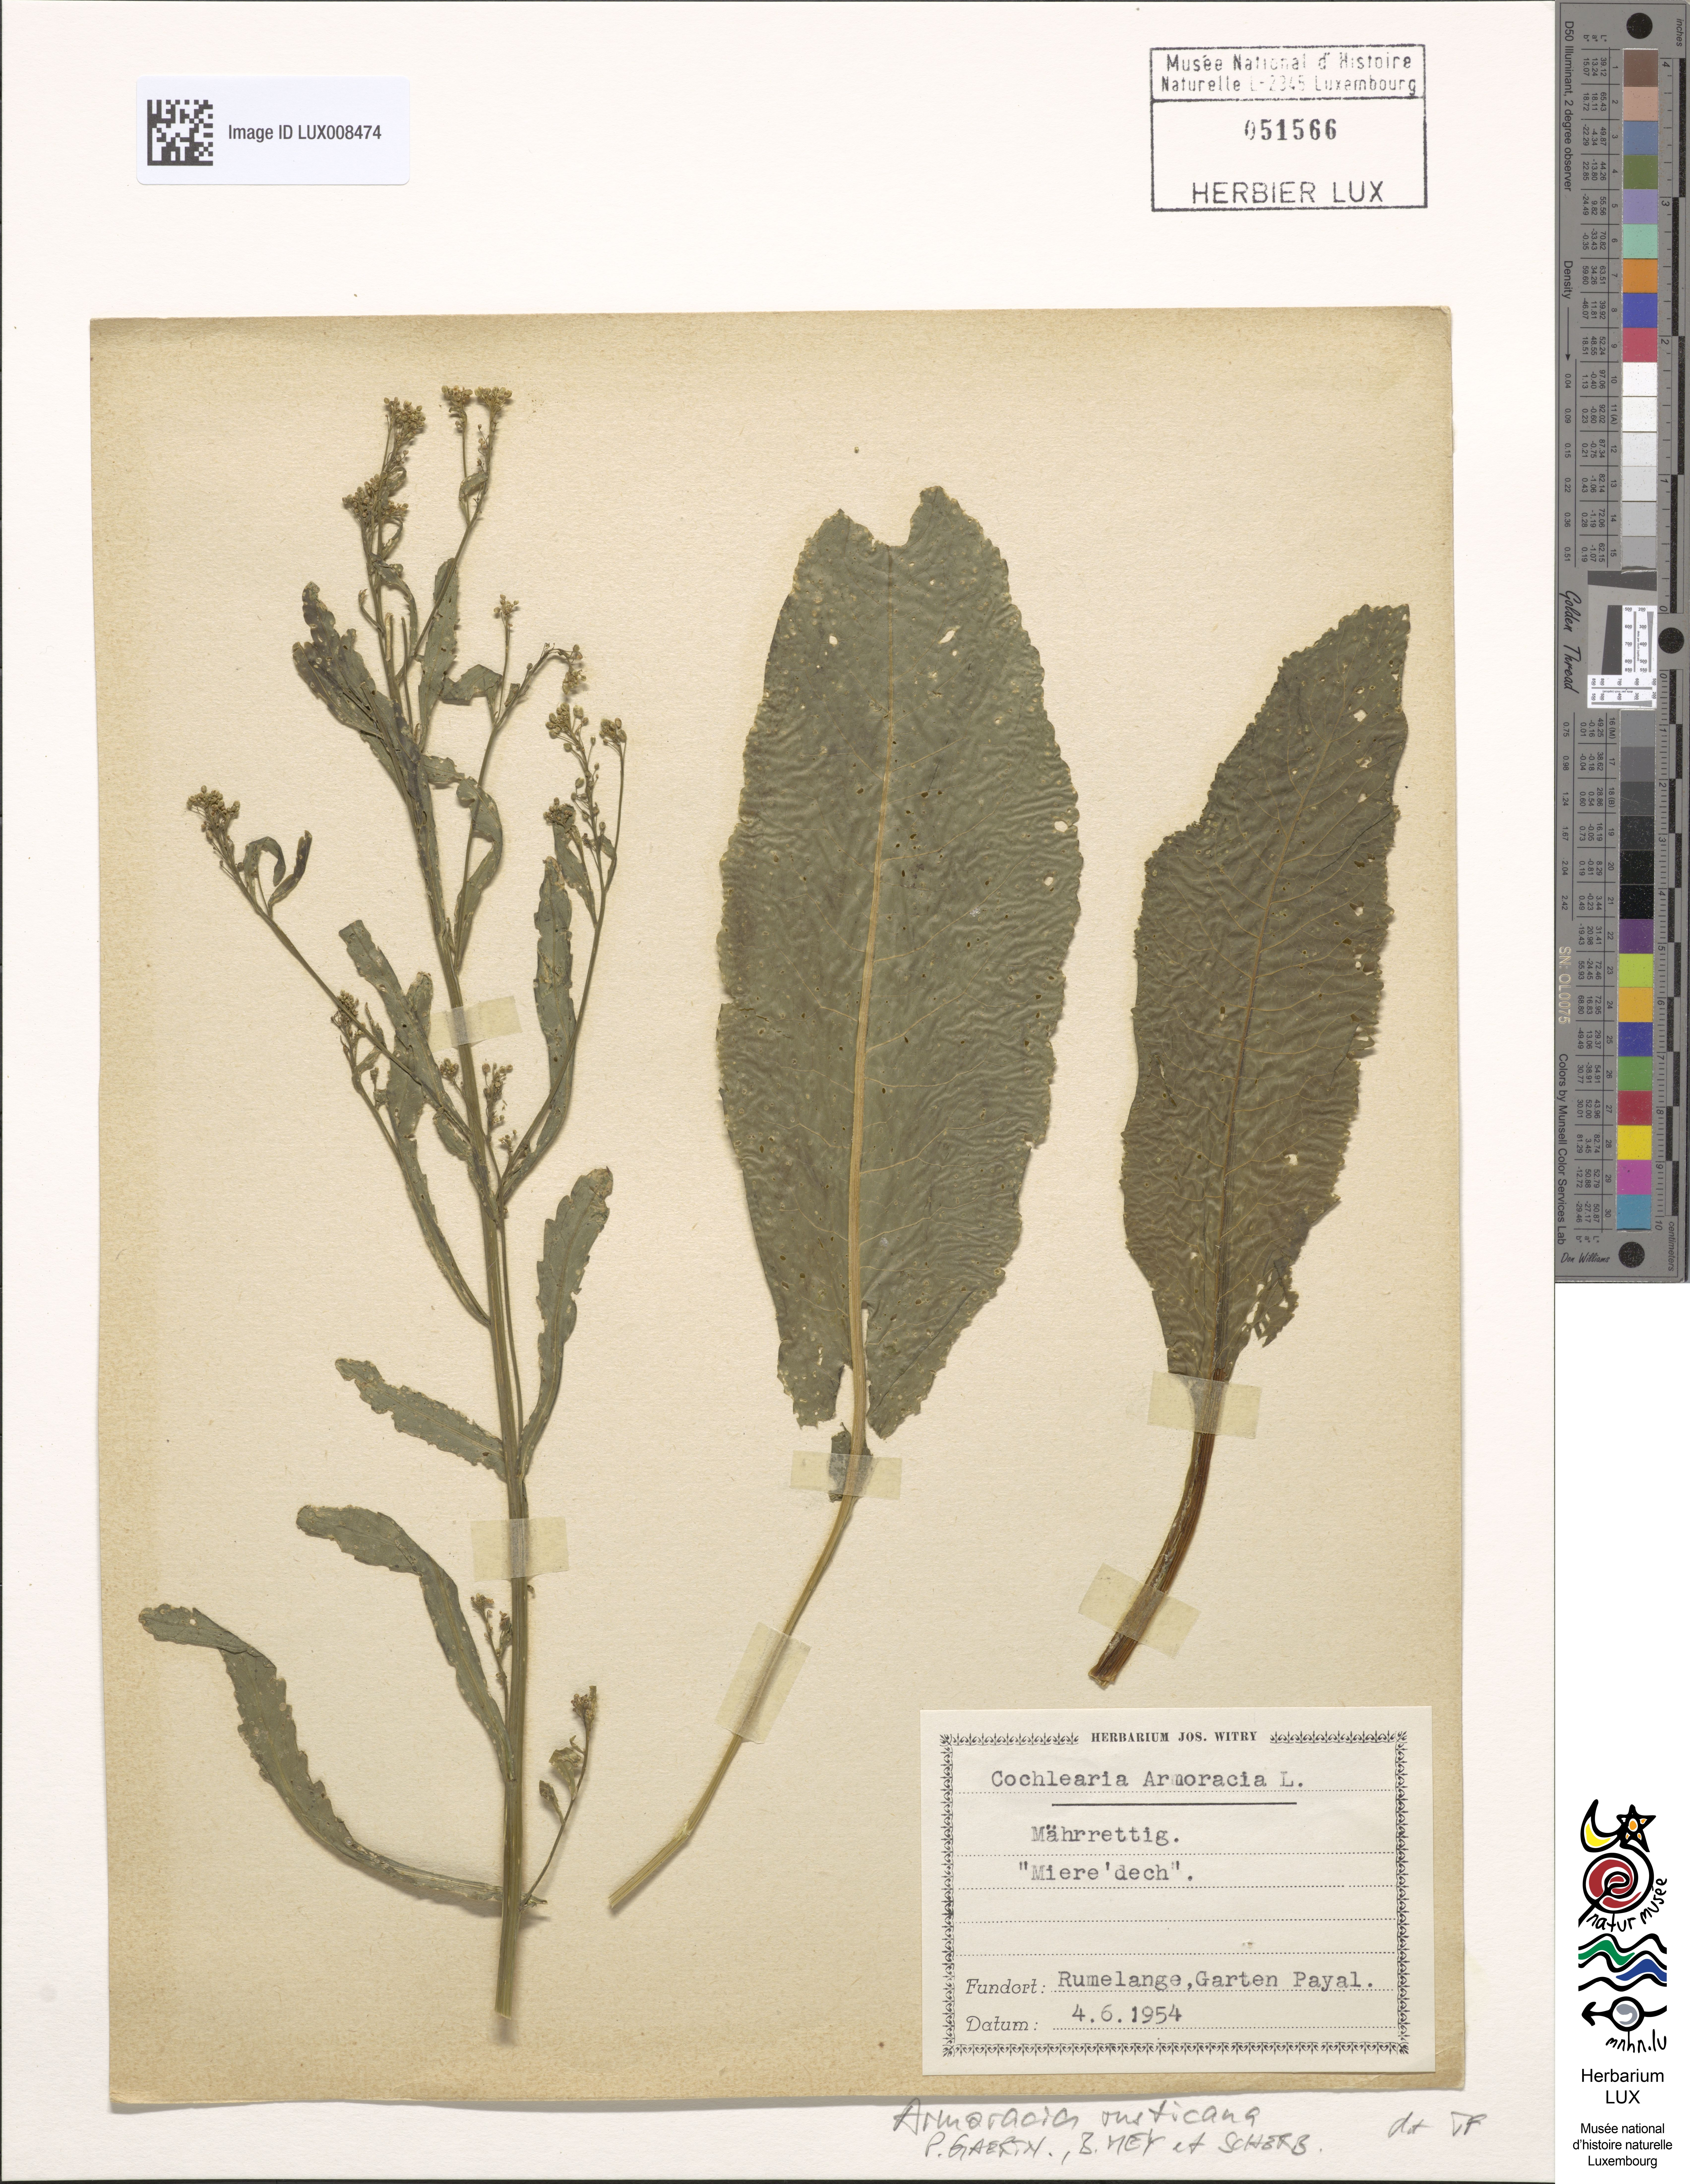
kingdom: Plantae
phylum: Tracheophyta
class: Magnoliopsida
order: Brassicales
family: Brassicaceae
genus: Armoracia
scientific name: Armoracia rusticana
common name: Horseradish
